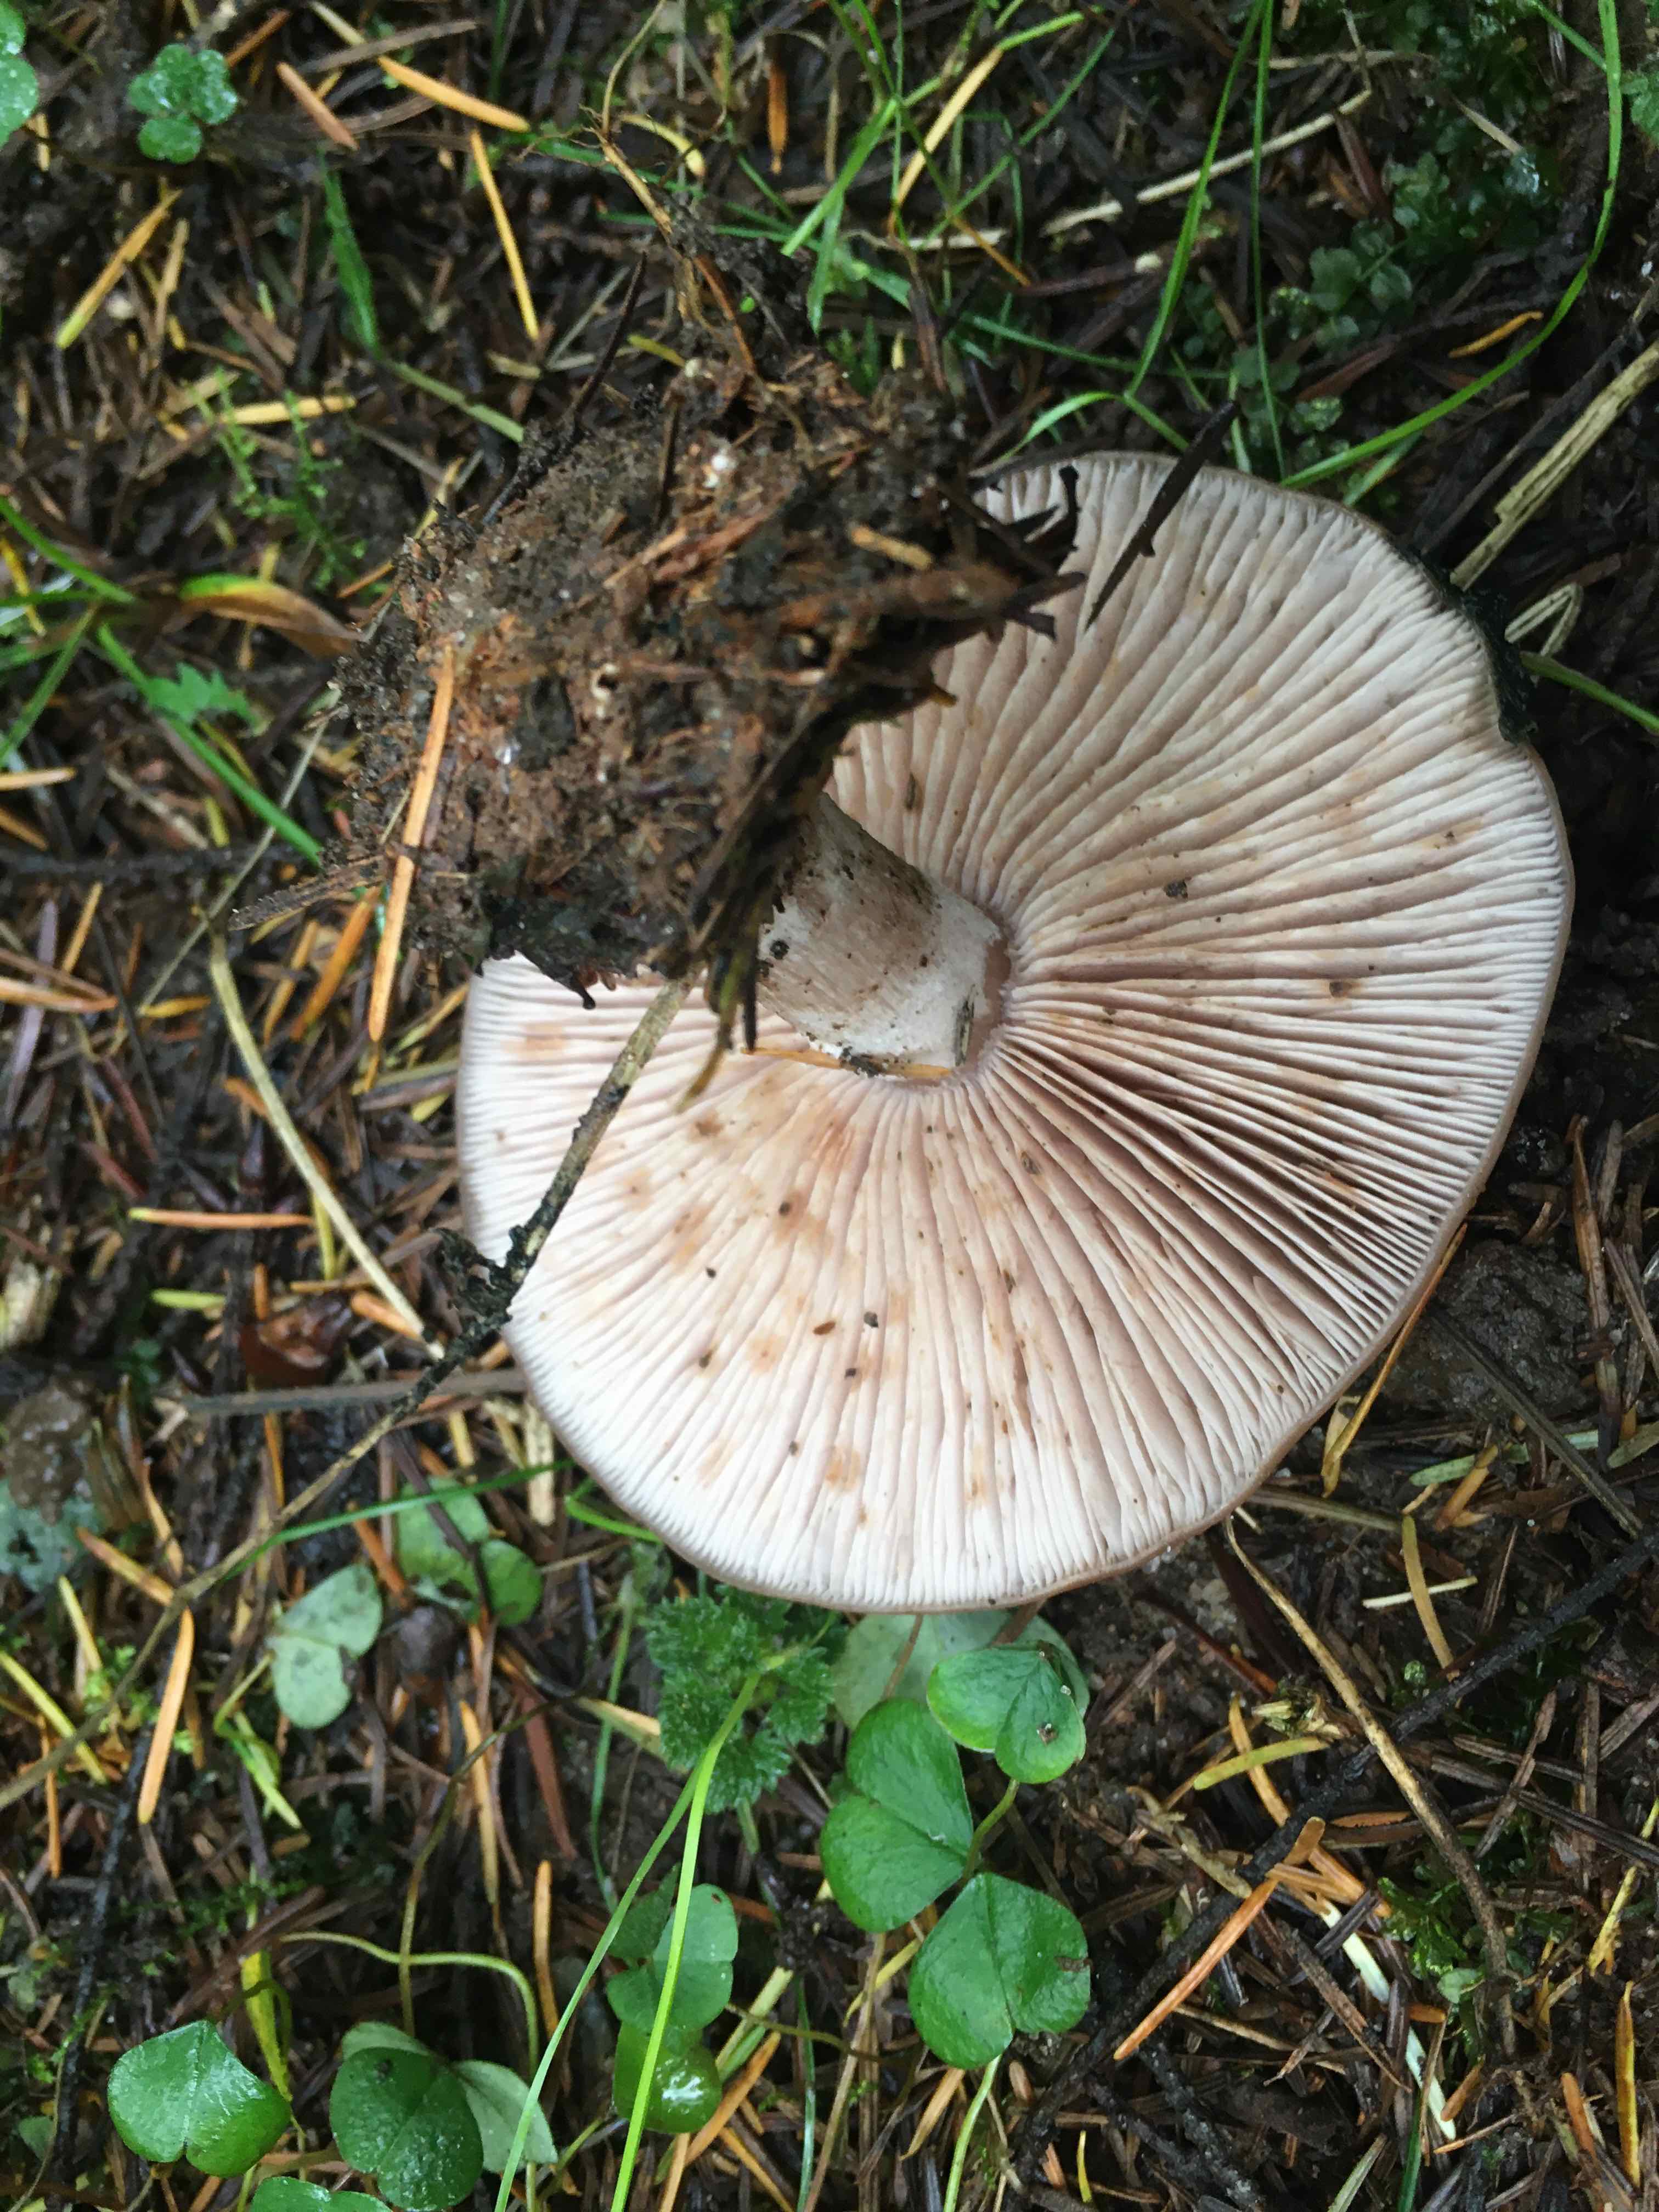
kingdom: Fungi
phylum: Basidiomycota
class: Agaricomycetes
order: Agaricales
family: Tricholomataceae
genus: Lepista
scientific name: Lepista
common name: hekseringshat
